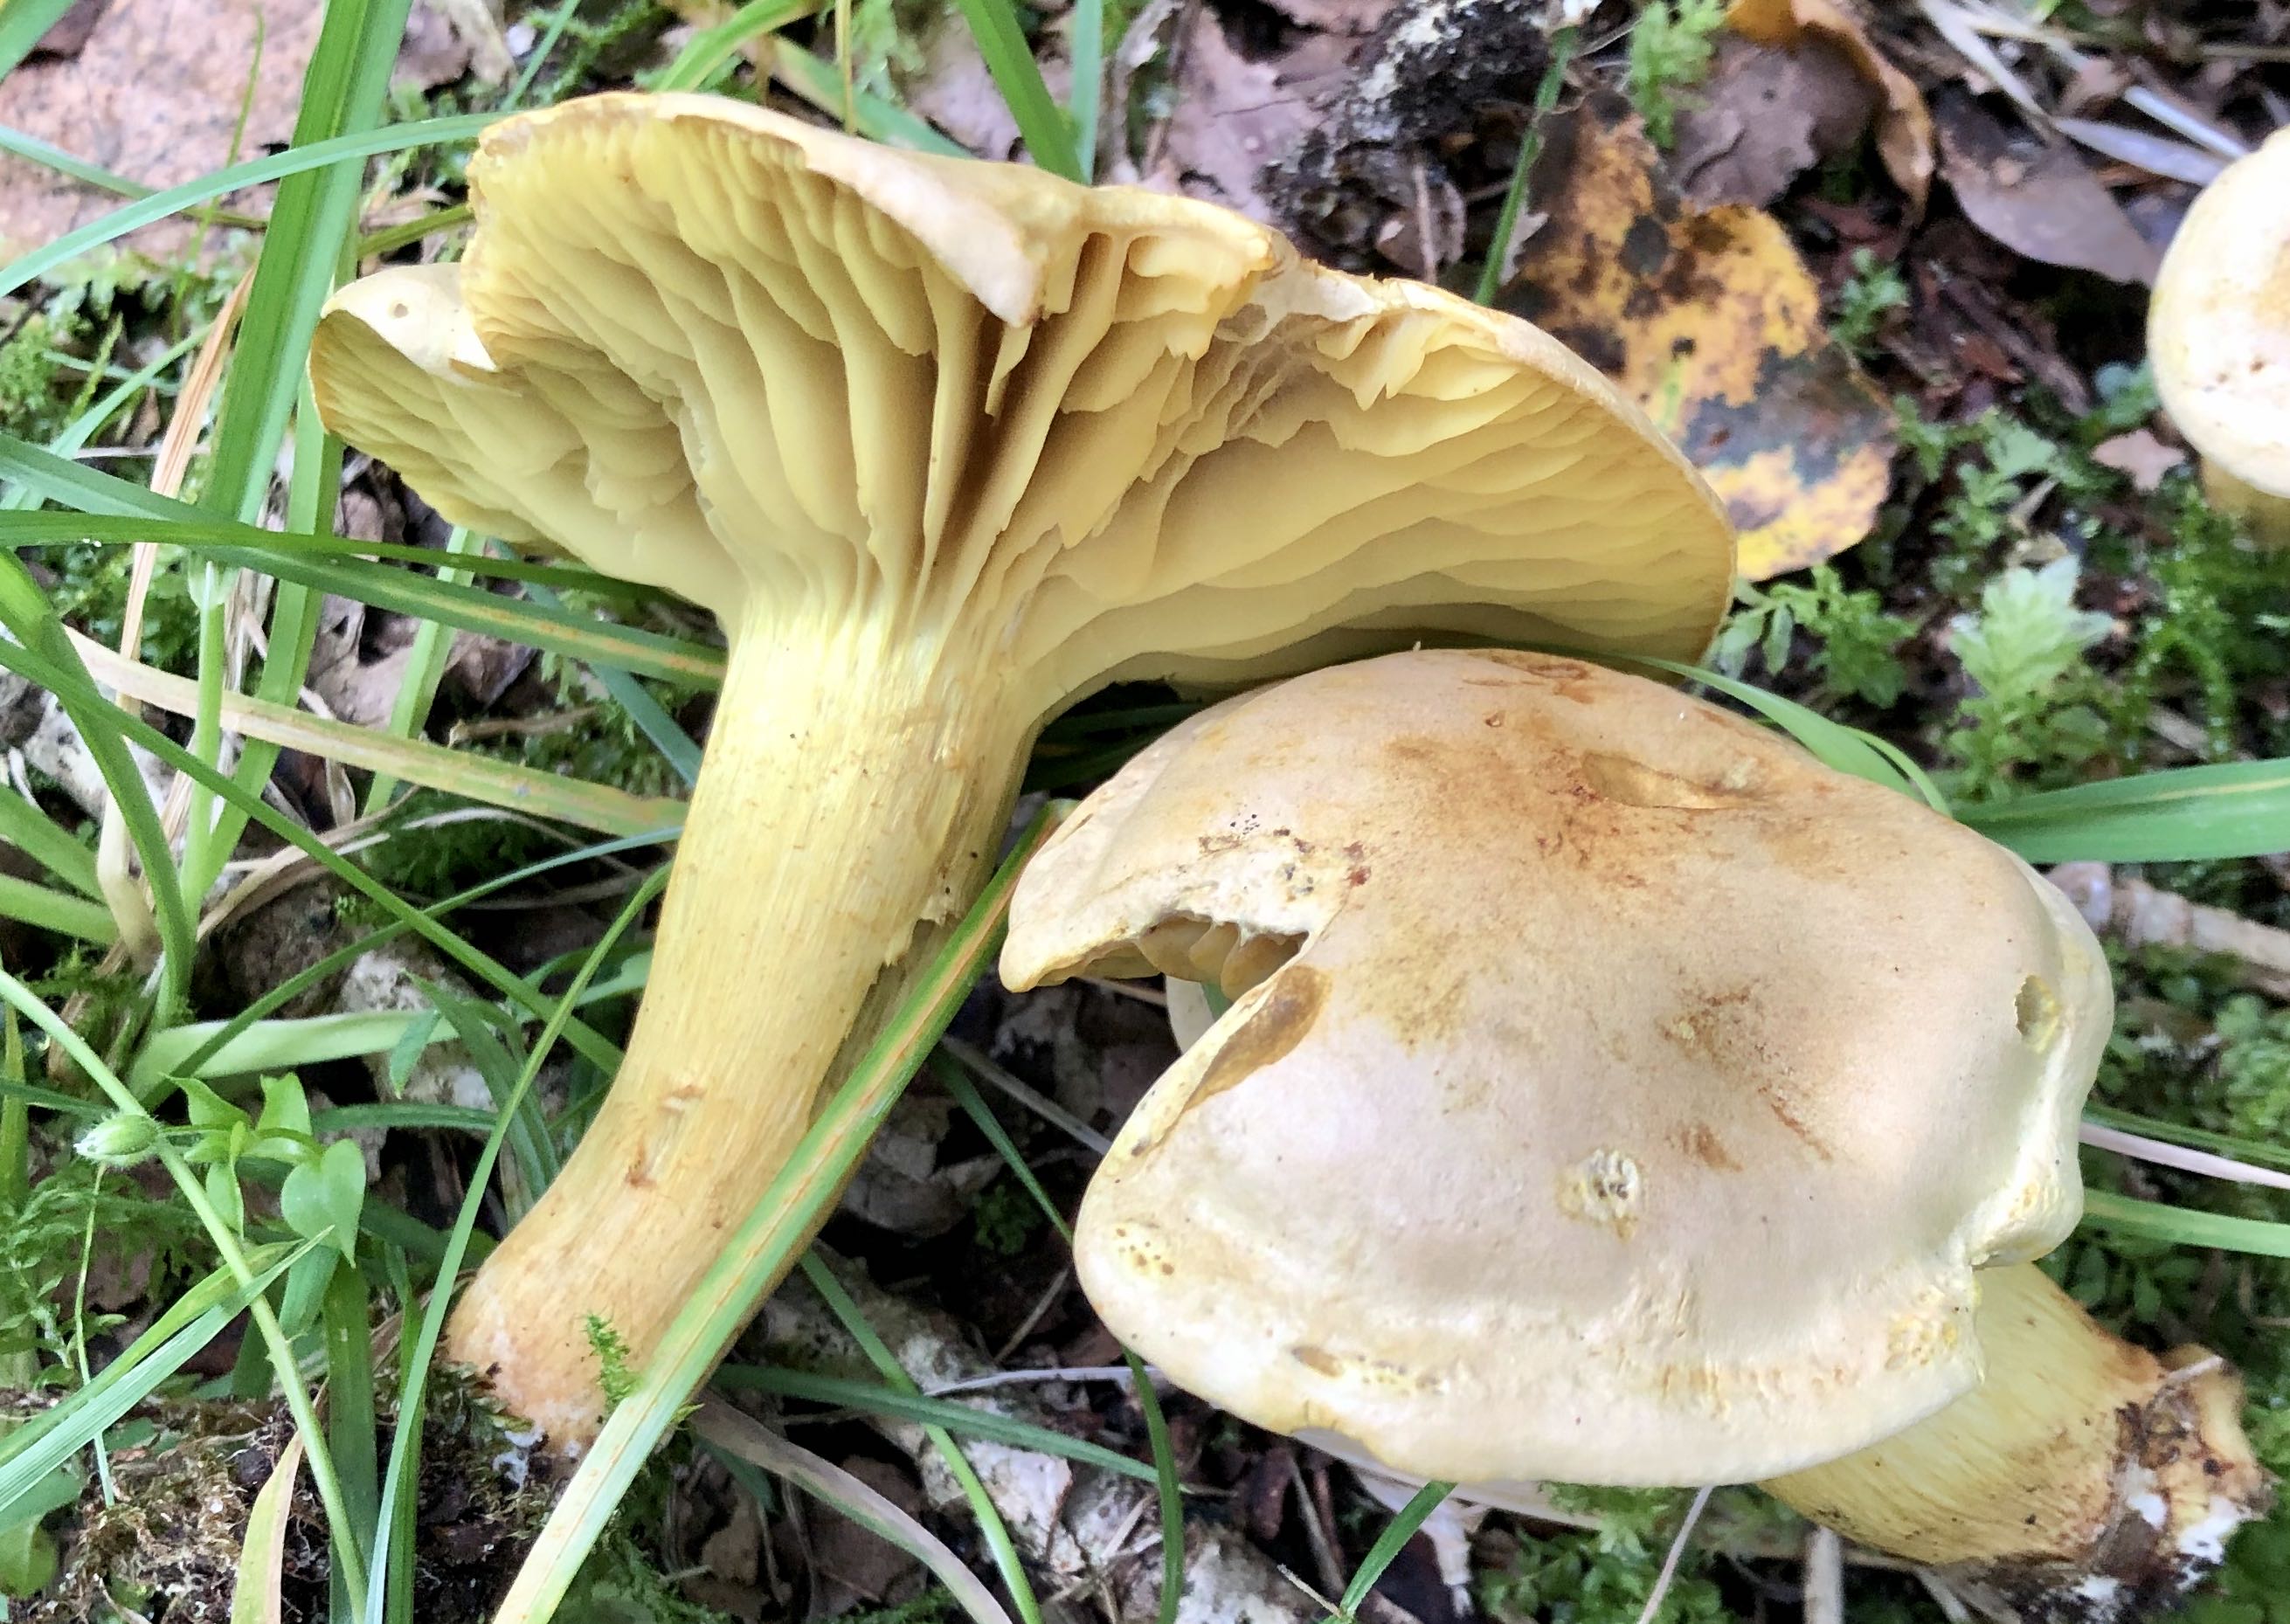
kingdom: Fungi
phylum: Basidiomycota
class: Agaricomycetes
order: Agaricales
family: Tricholomataceae
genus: Tricholoma
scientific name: Tricholoma sulphureum
